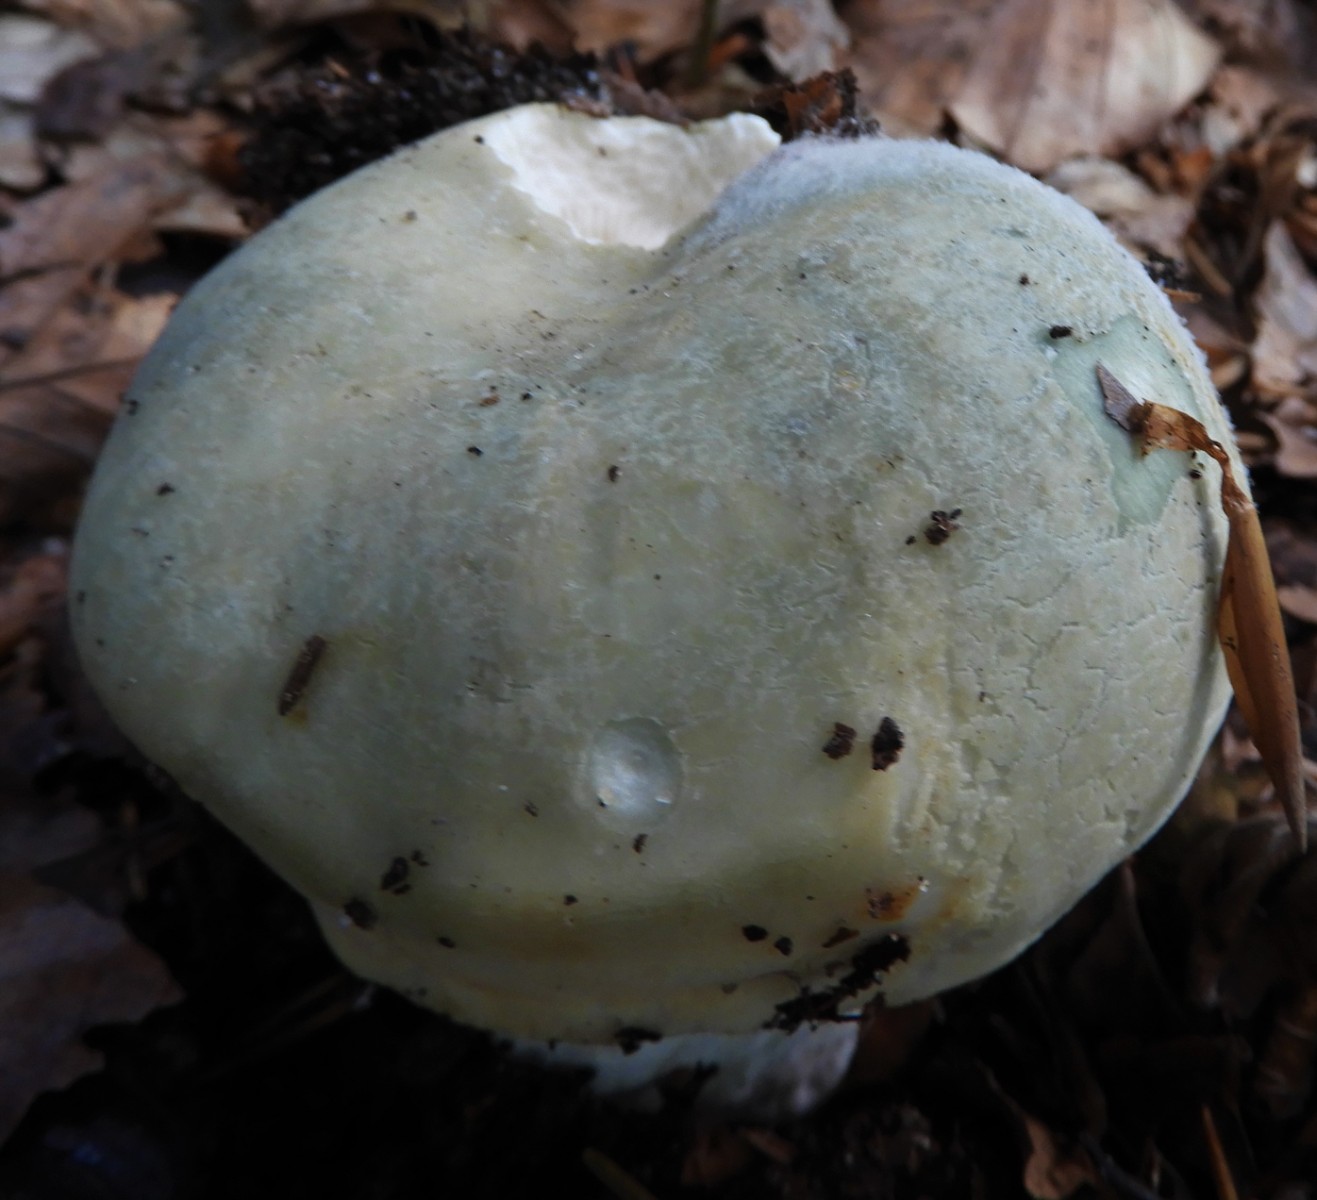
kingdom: Fungi
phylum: Basidiomycota
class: Agaricomycetes
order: Russulales
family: Russulaceae
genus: Russula
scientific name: Russula virescens
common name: spanskgrøn skørhat
